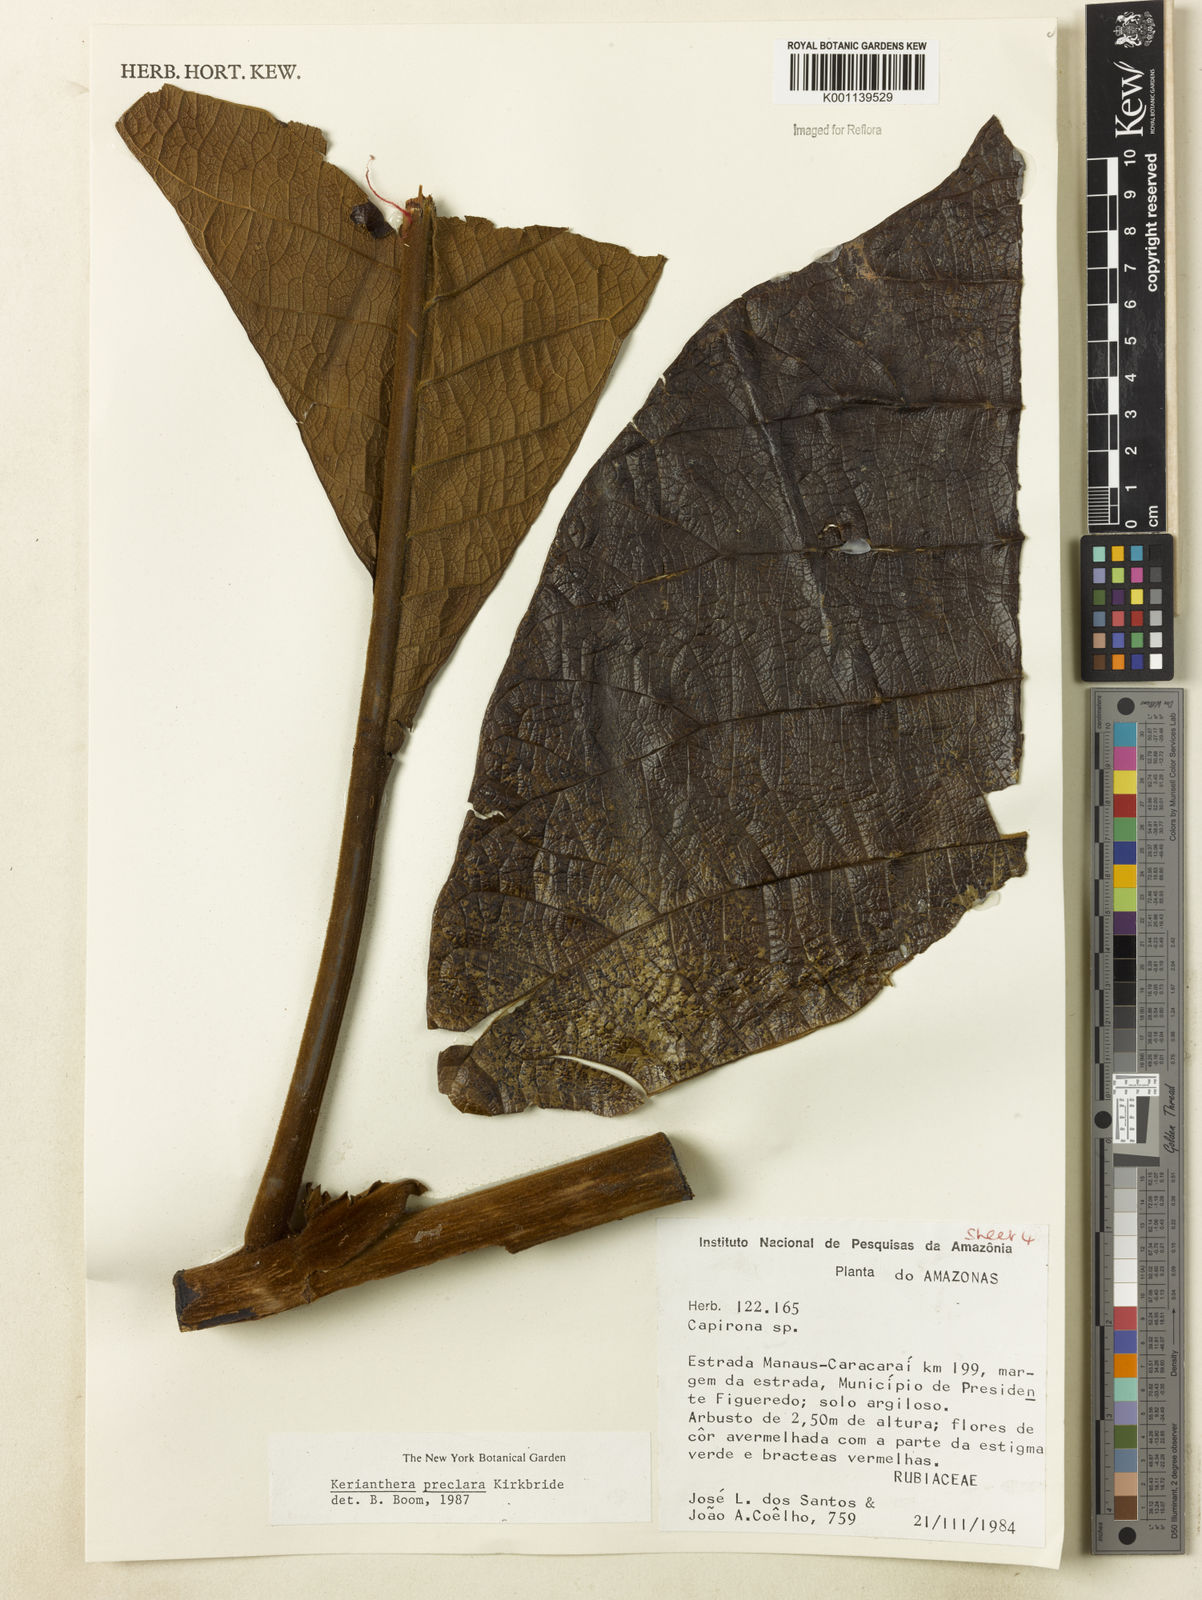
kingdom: Plantae
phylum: Tracheophyta
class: Magnoliopsida
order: Gentianales
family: Rubiaceae
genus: Kerianthera
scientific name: Kerianthera preclara
